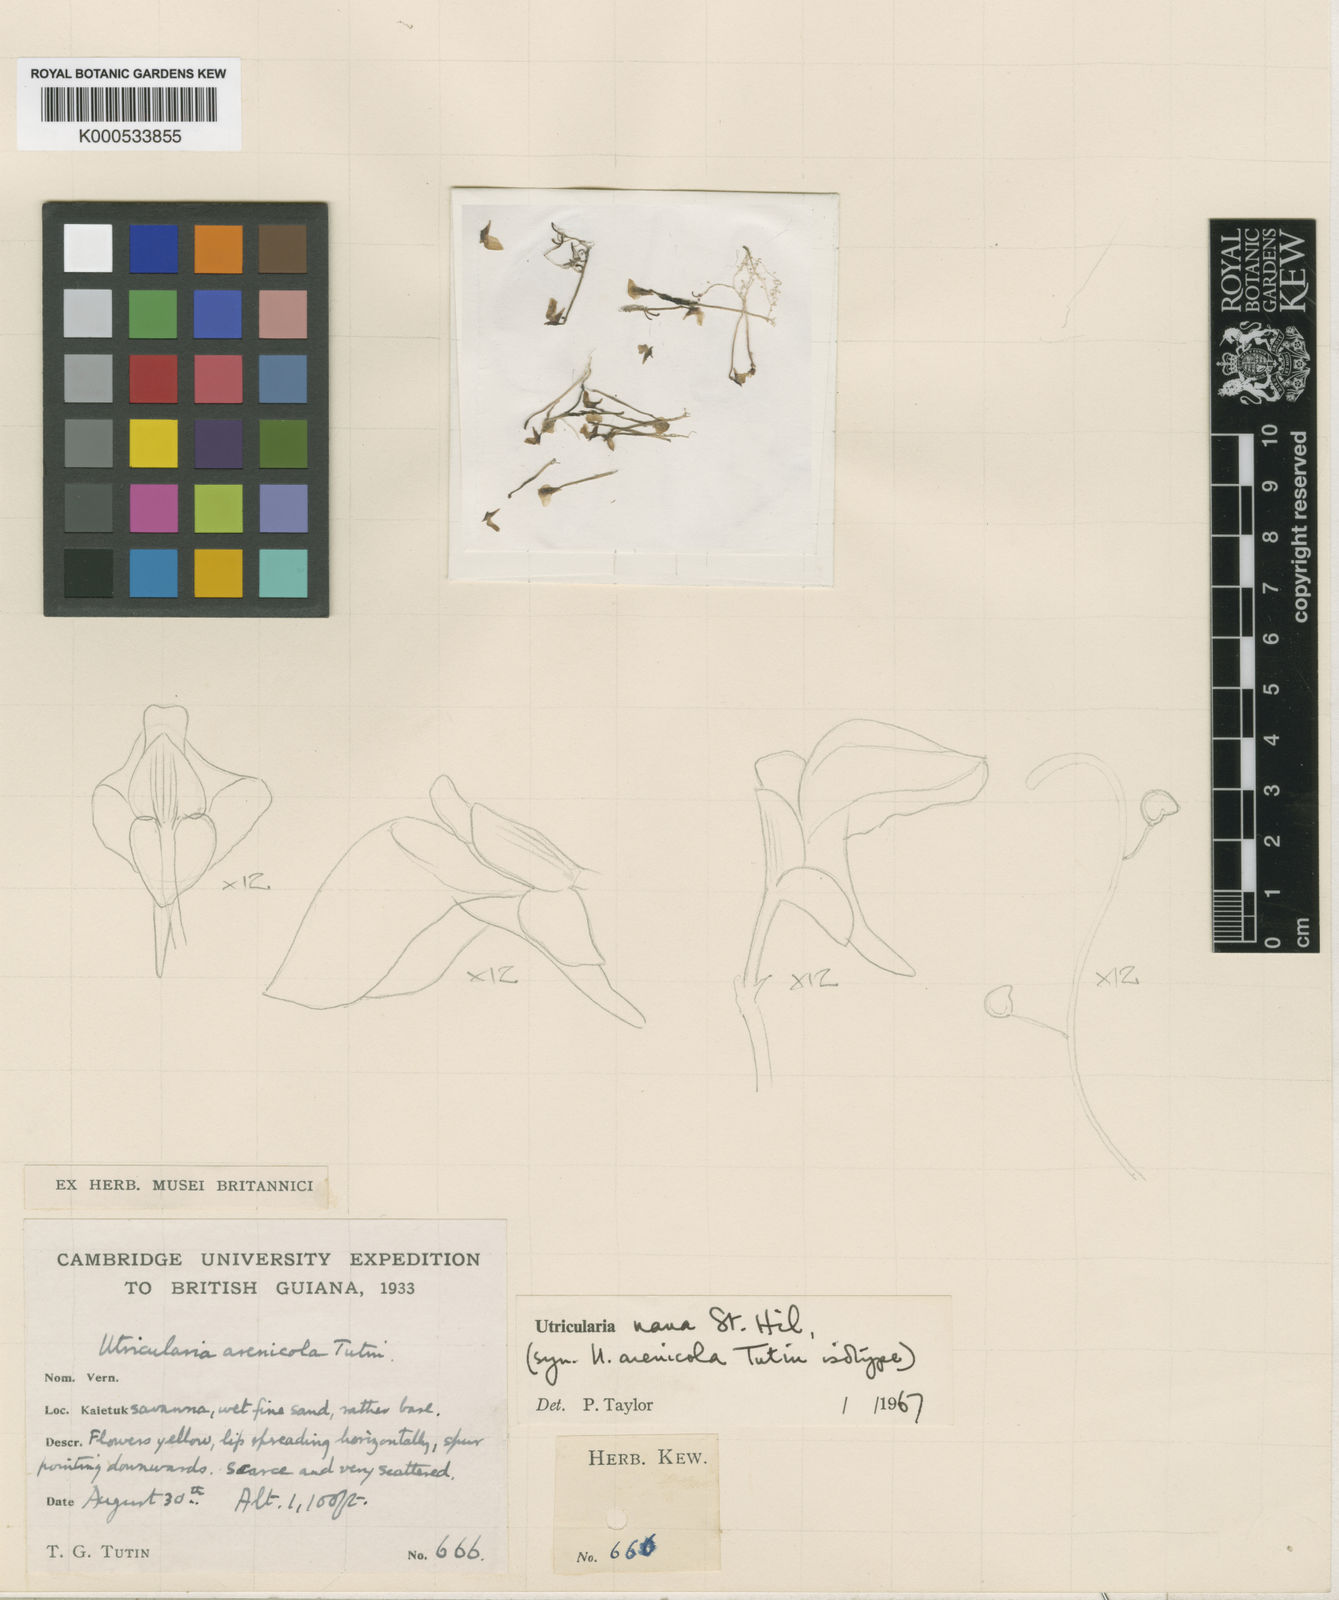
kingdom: Plantae
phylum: Tracheophyta
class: Magnoliopsida
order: Lamiales
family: Lentibulariaceae
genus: Utricularia
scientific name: Utricularia nana
